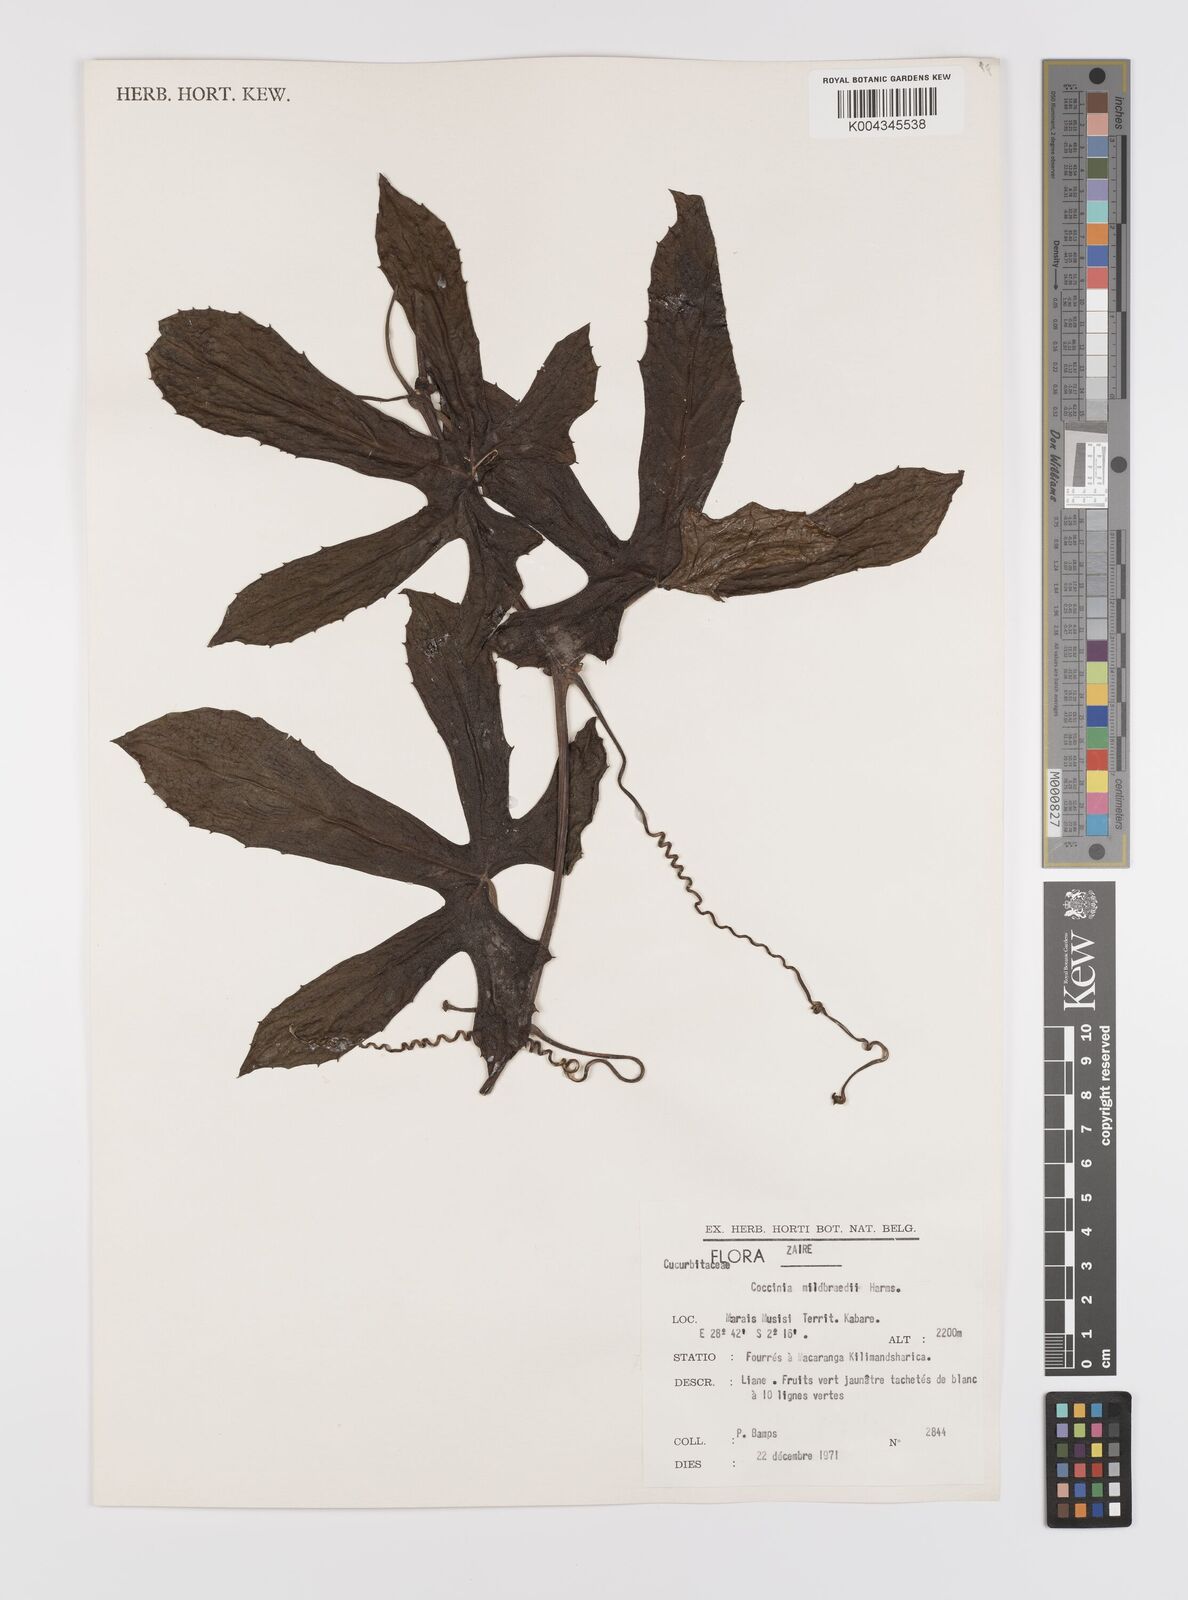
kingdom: Plantae
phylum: Tracheophyta
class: Magnoliopsida
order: Cucurbitales
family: Cucurbitaceae
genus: Coccinia
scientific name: Coccinia mildbraedii
